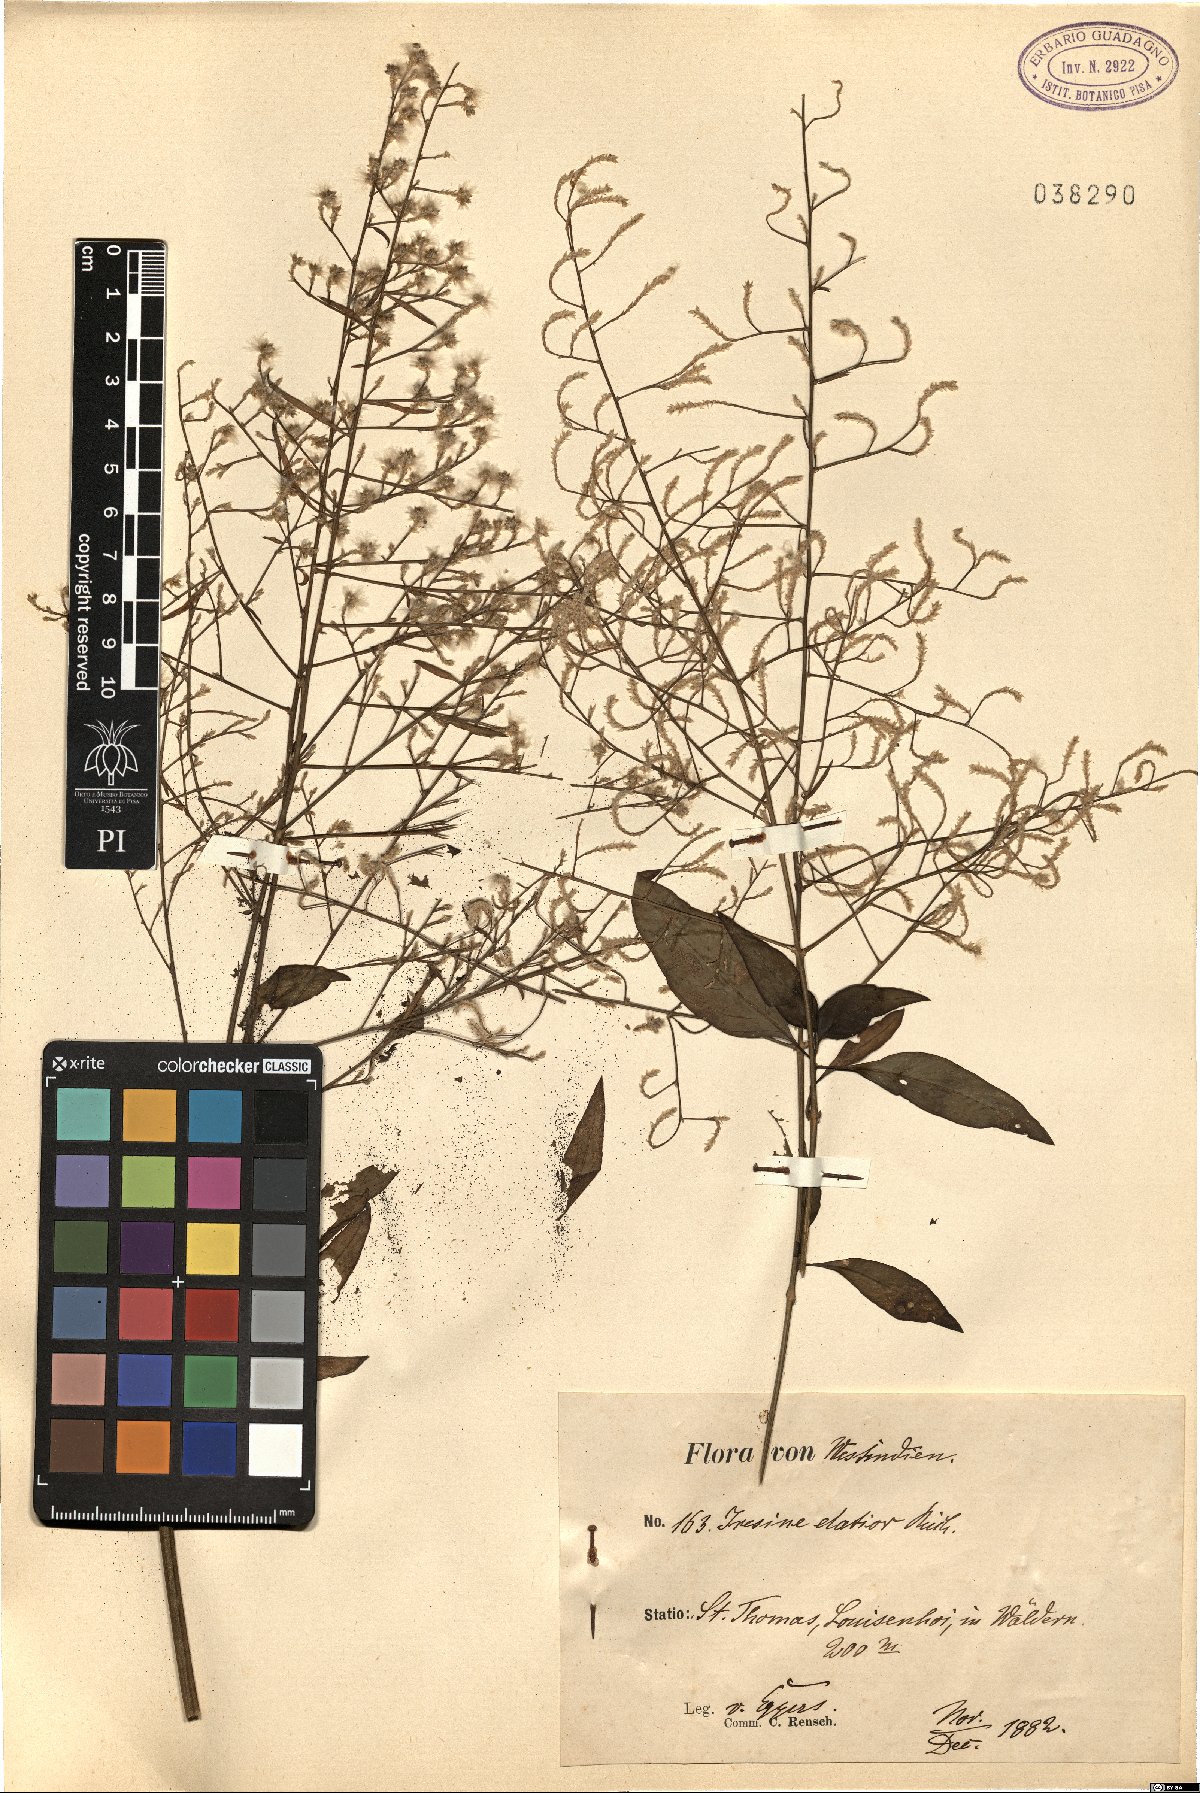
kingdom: Plantae
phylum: Tracheophyta
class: Magnoliopsida
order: Caryophyllales
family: Amaranthaceae
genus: Iresine
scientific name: Iresine angustifolia
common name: White snowplant
